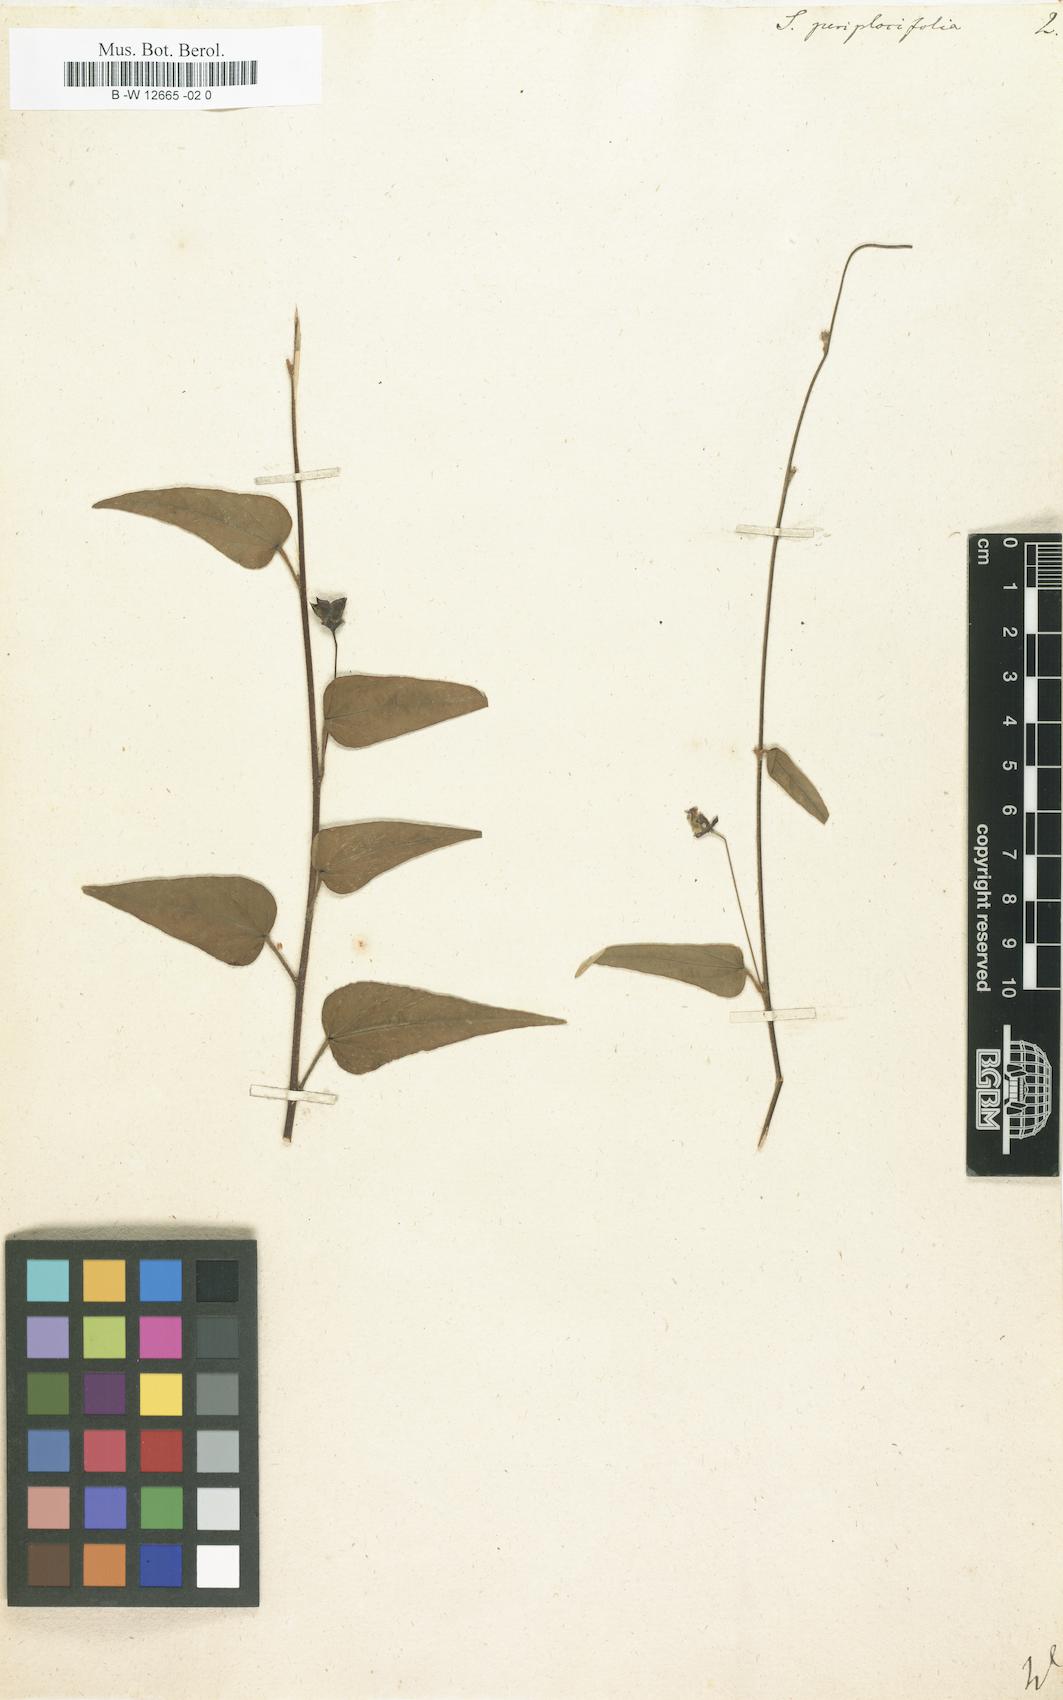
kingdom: Plantae
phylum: Tracheophyta
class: Magnoliopsida
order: Malvales
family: Malvaceae
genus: Wissadula
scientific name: Wissadula
